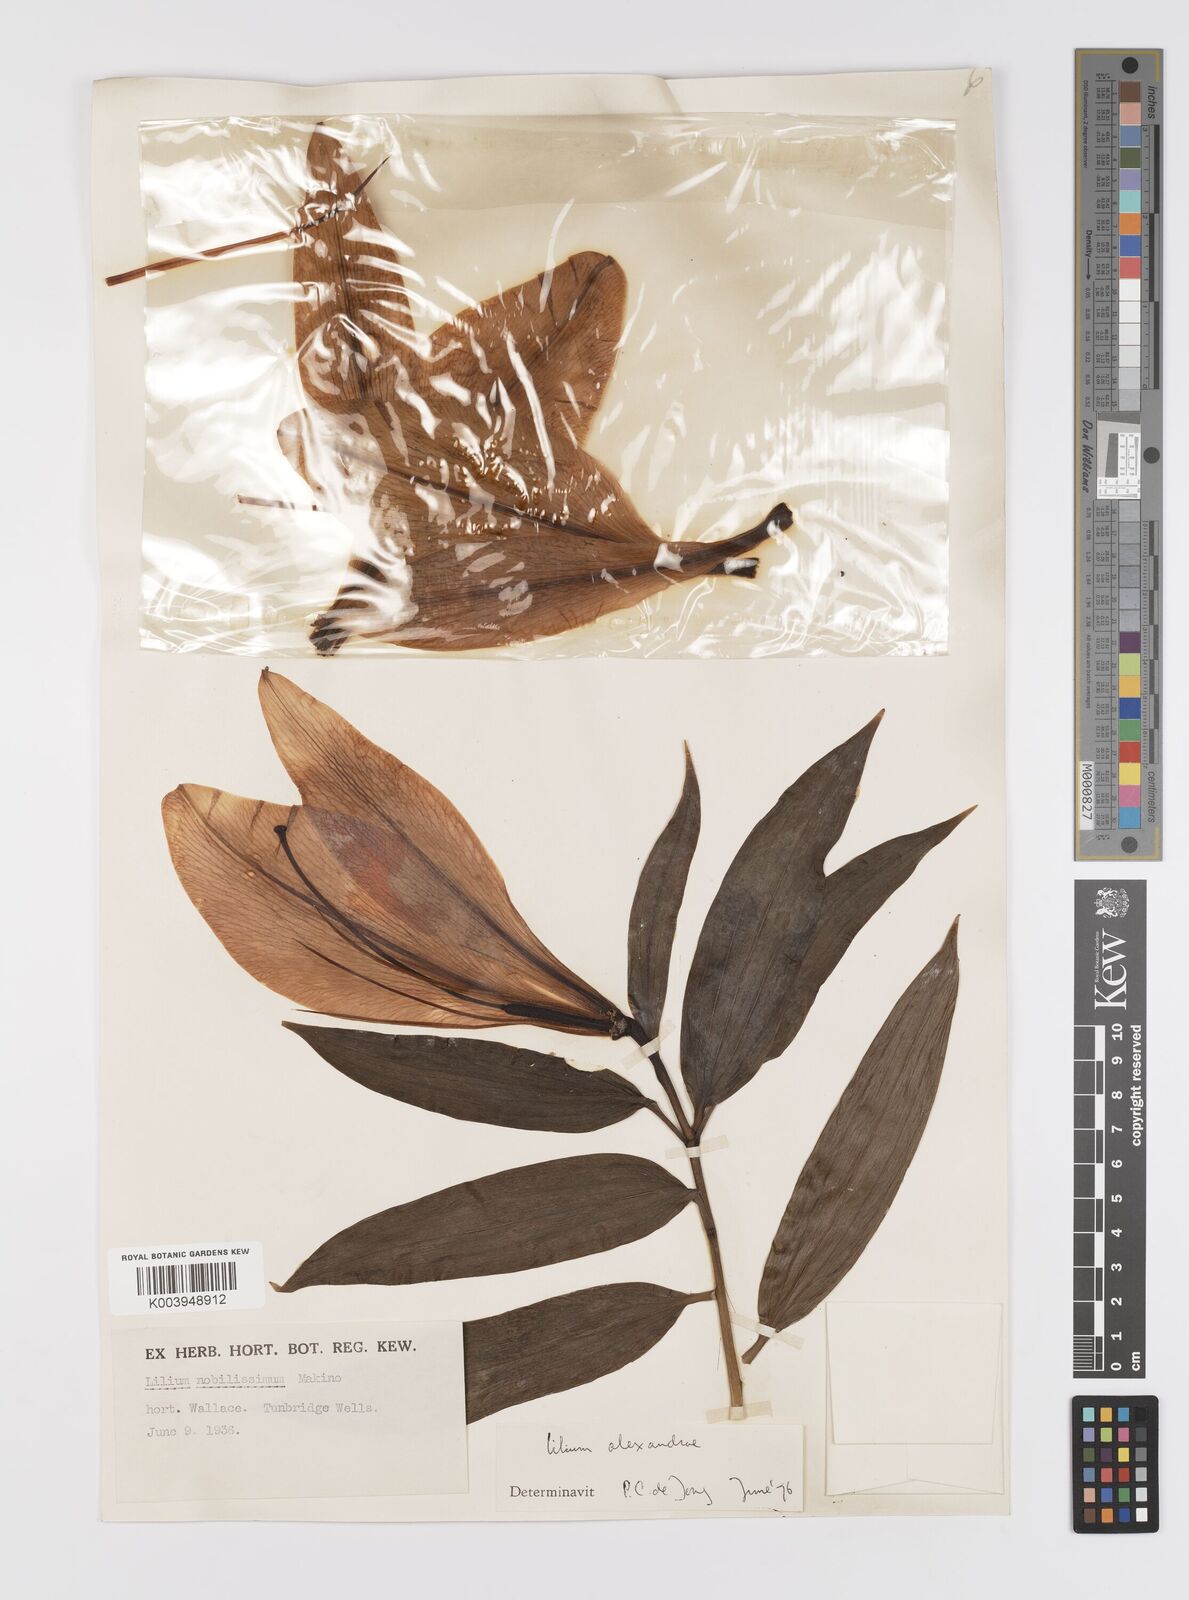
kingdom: Plantae
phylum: Tracheophyta
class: Liliopsida
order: Liliales
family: Liliaceae
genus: Lilium
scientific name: Lilium nobilissimum
